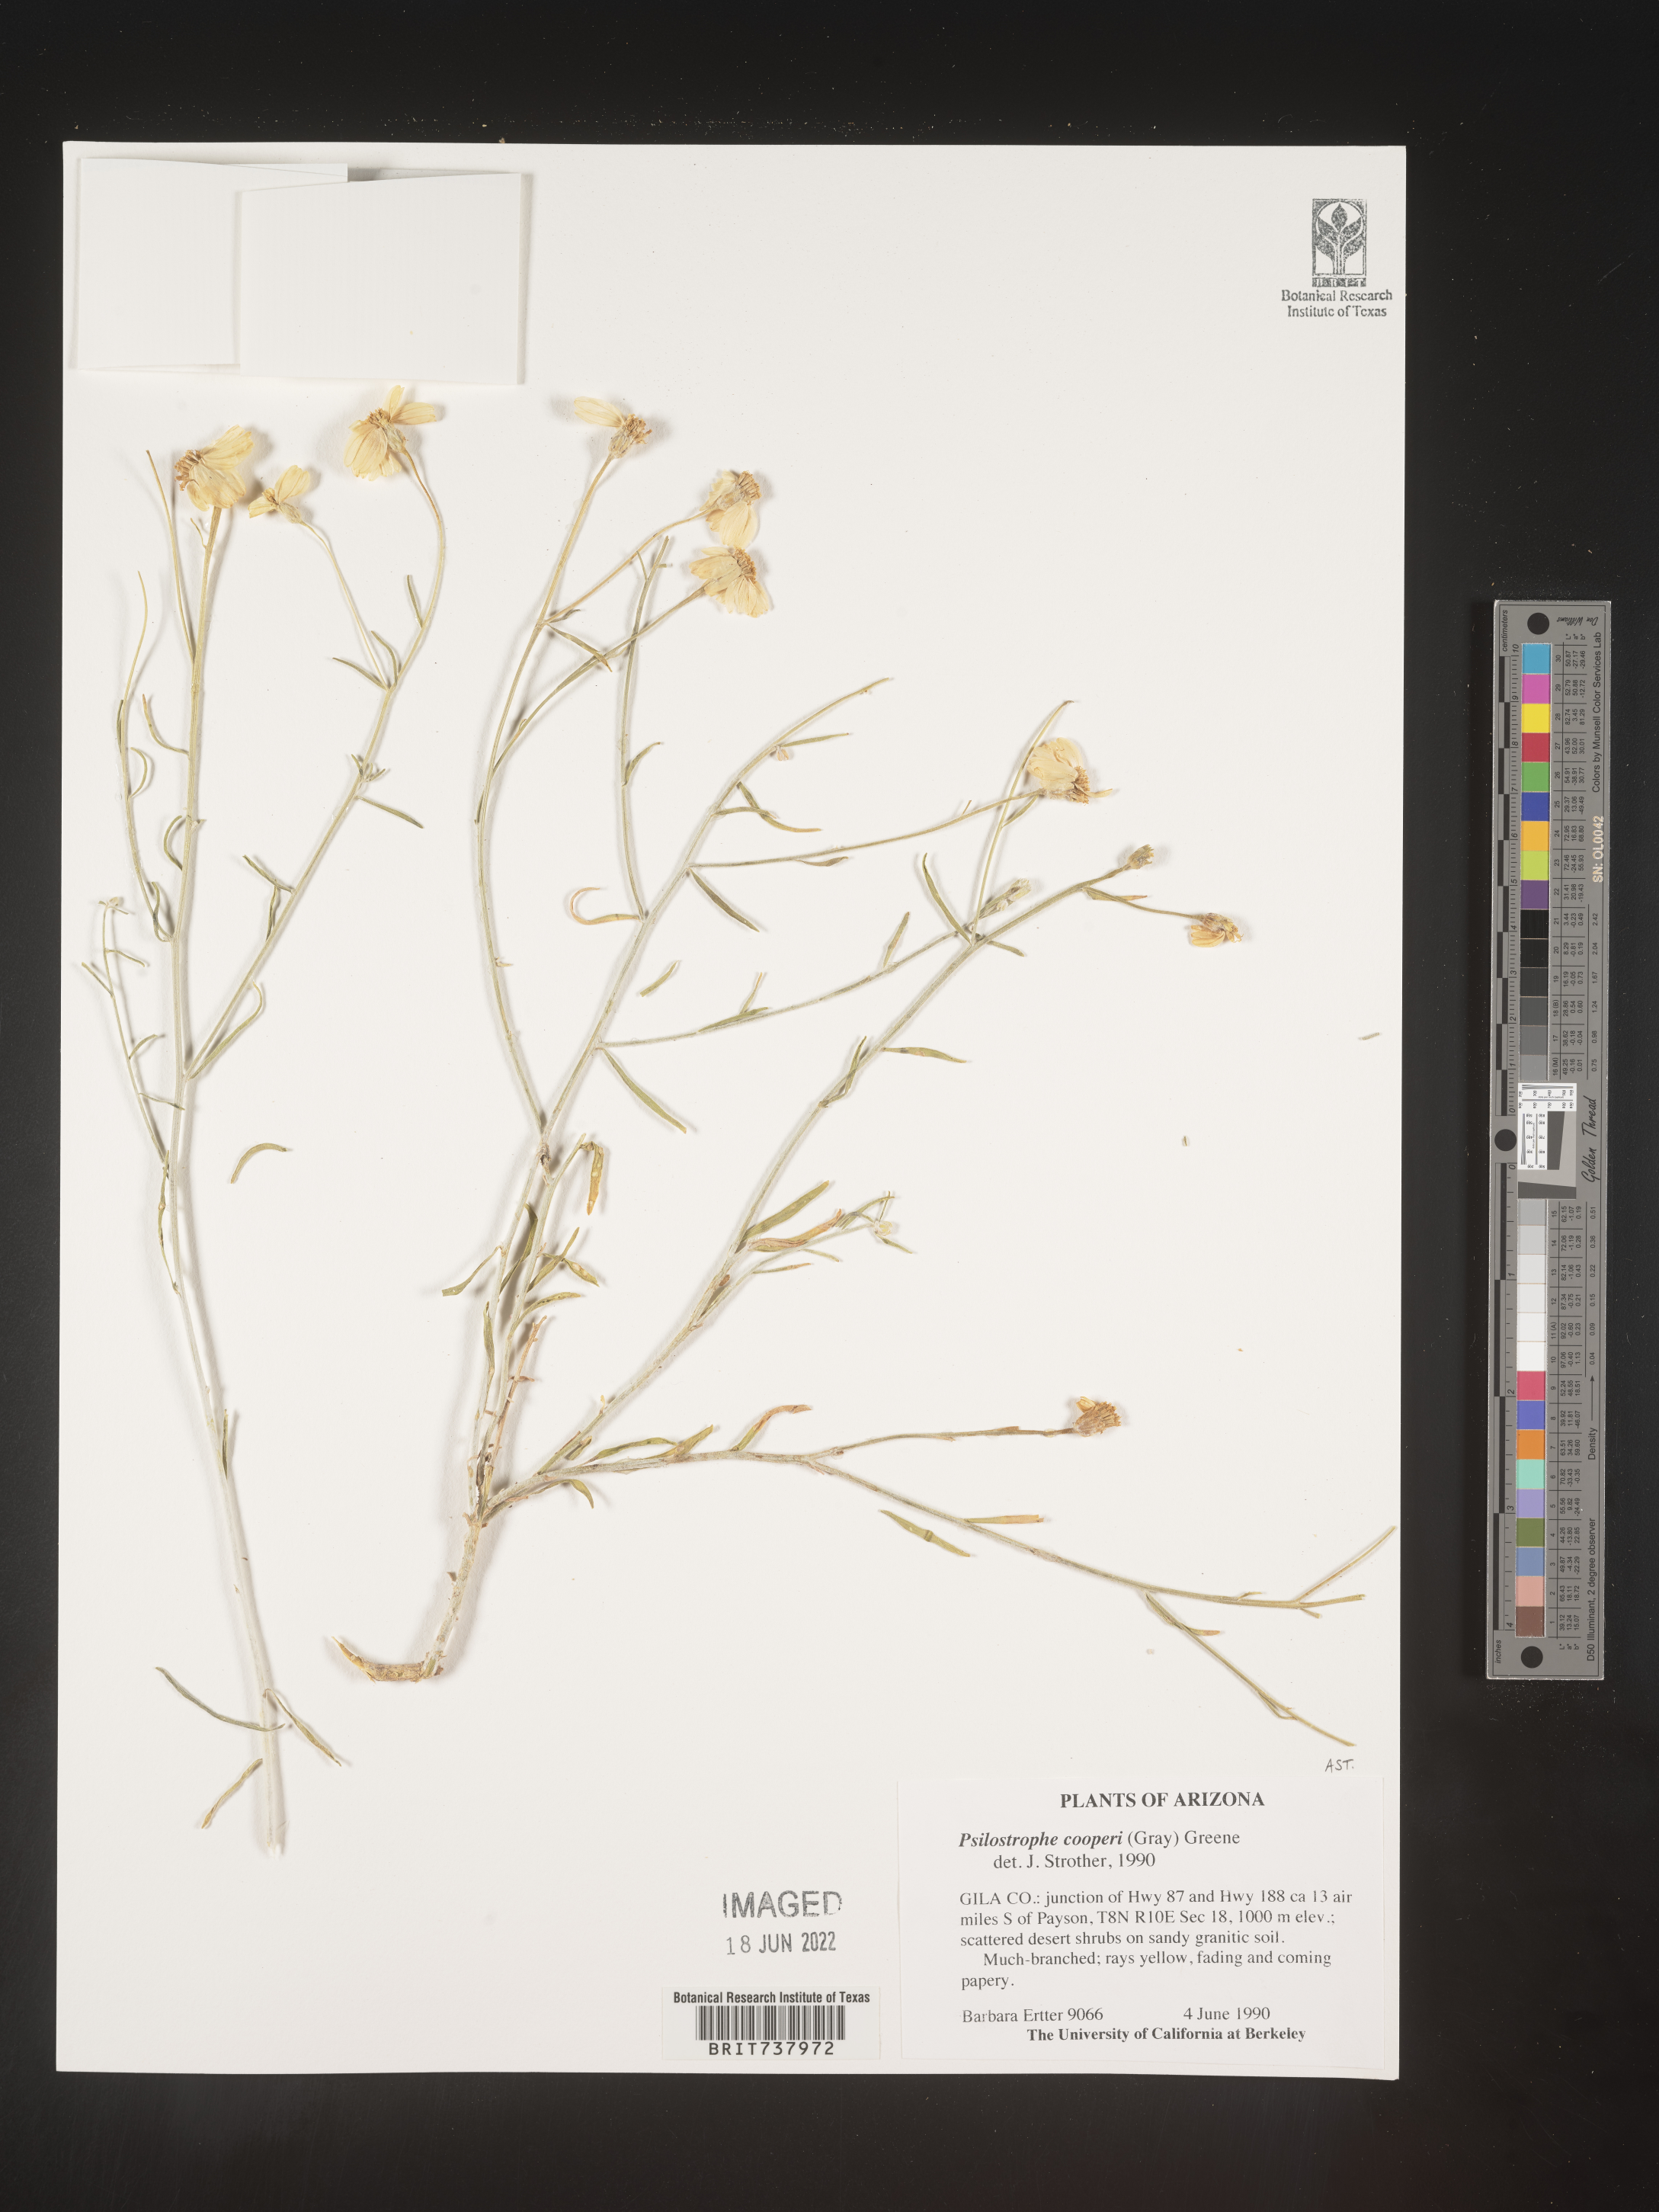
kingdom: Plantae
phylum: Tracheophyta
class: Magnoliopsida
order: Asterales
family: Asteraceae
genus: Psilostrophe
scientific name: Psilostrophe
